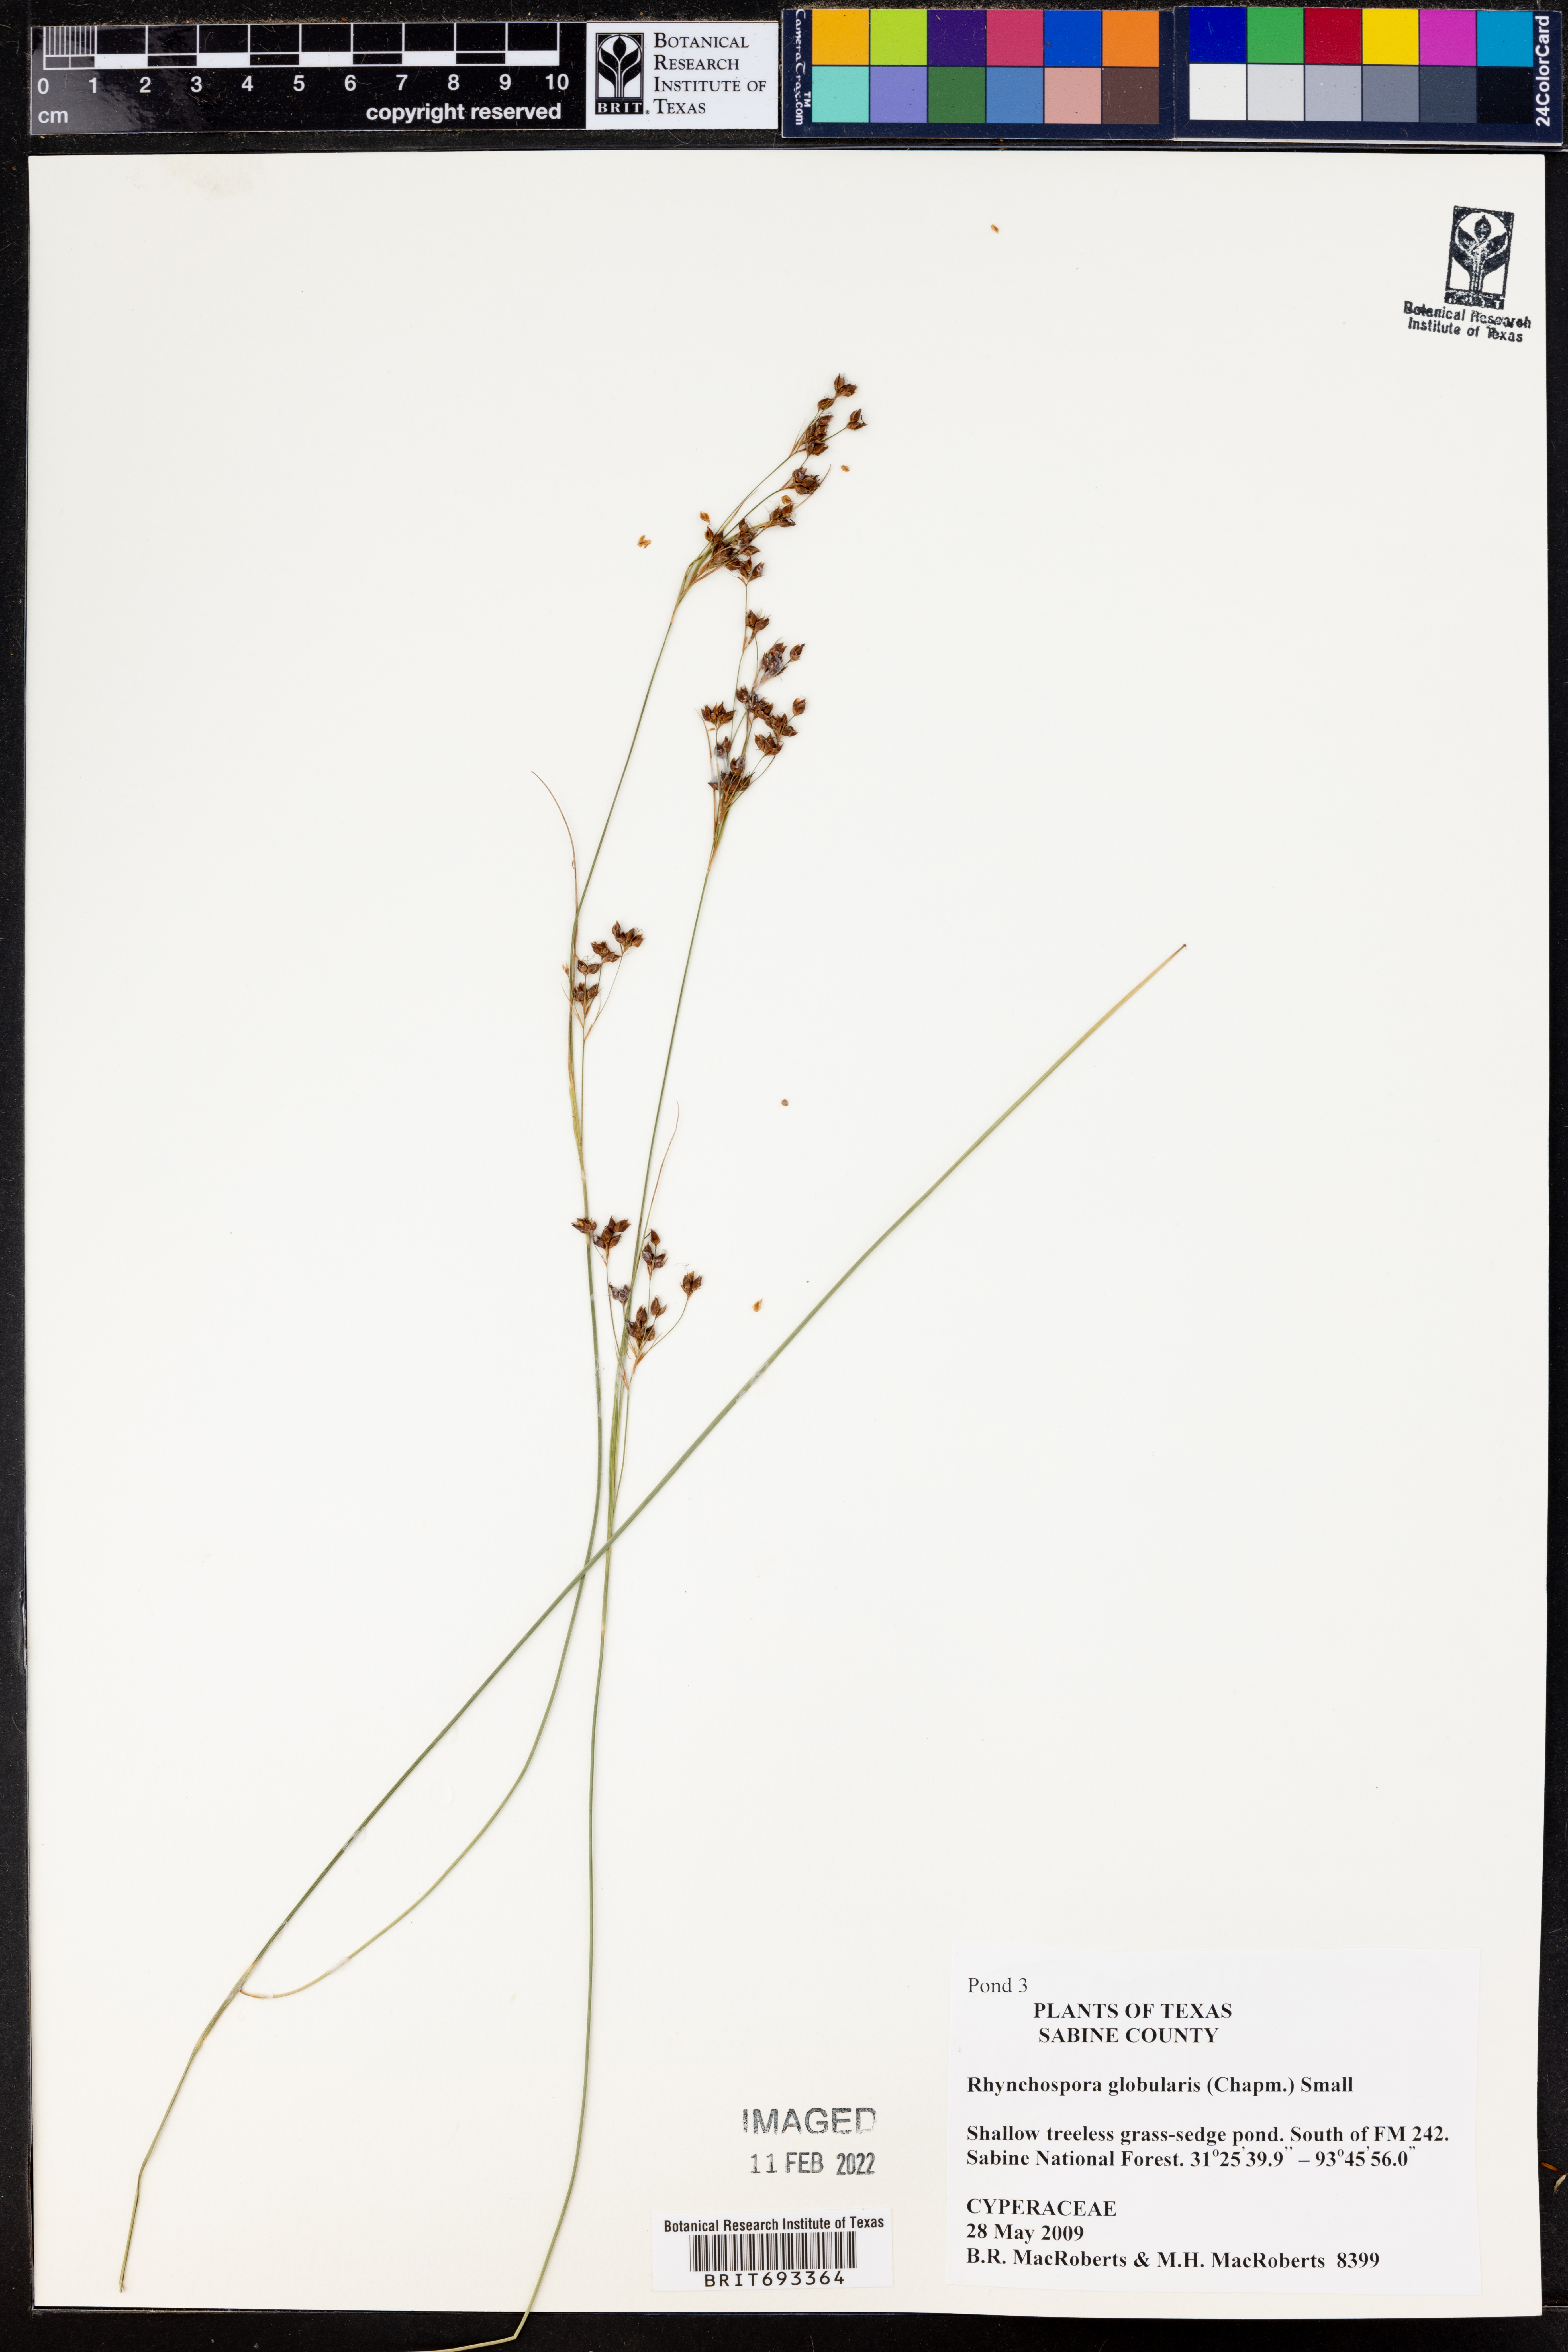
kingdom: Plantae
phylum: Tracheophyta
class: Liliopsida
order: Poales
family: Cyperaceae
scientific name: Cyperaceae
